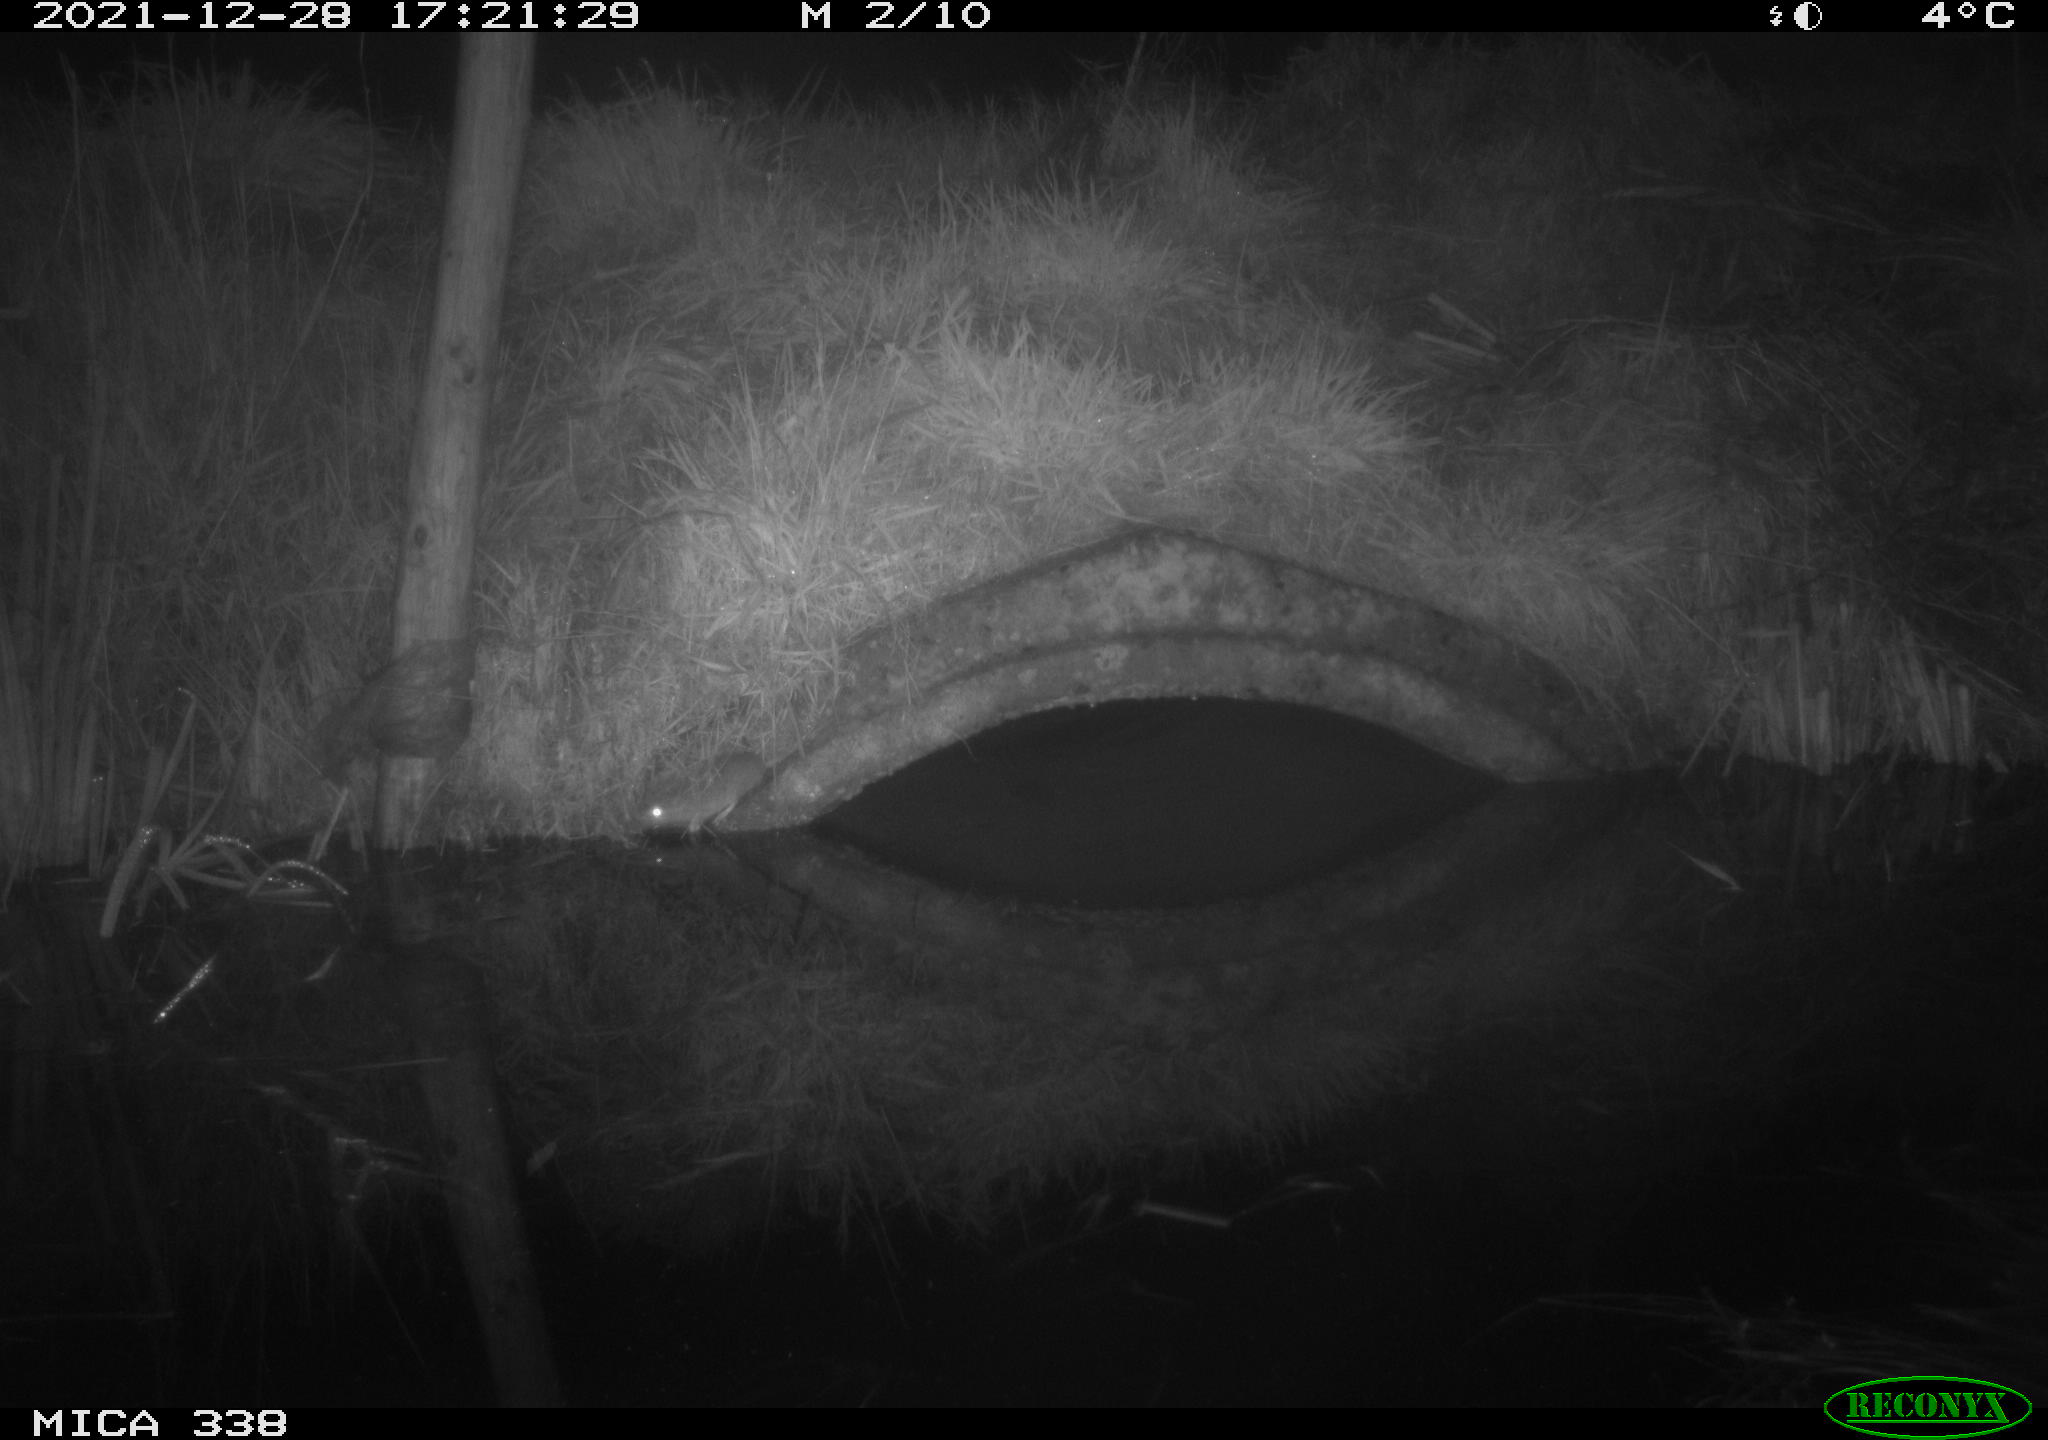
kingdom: Animalia
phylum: Chordata
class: Mammalia
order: Rodentia
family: Muridae
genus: Rattus
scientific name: Rattus norvegicus
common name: Brown rat
